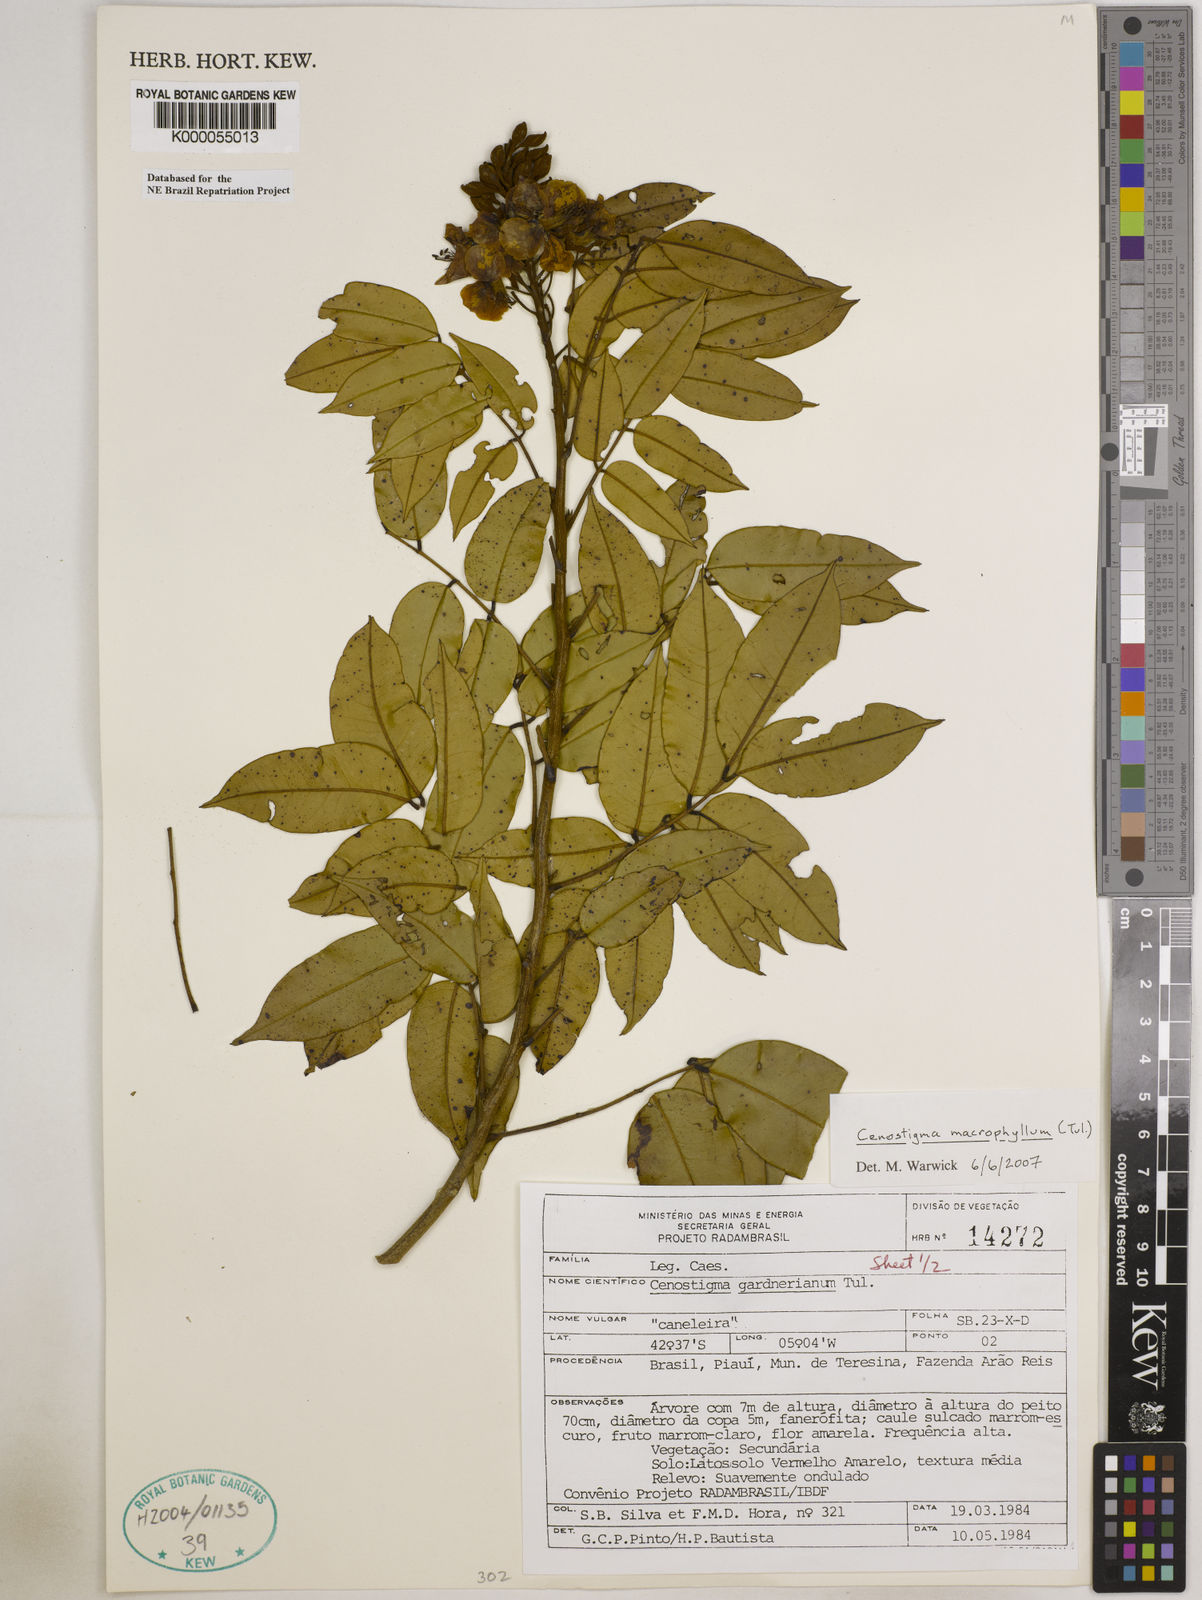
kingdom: Plantae
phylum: Tracheophyta
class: Magnoliopsida
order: Fabales
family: Fabaceae
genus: Cenostigma
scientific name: Cenostigma macrophyllum
